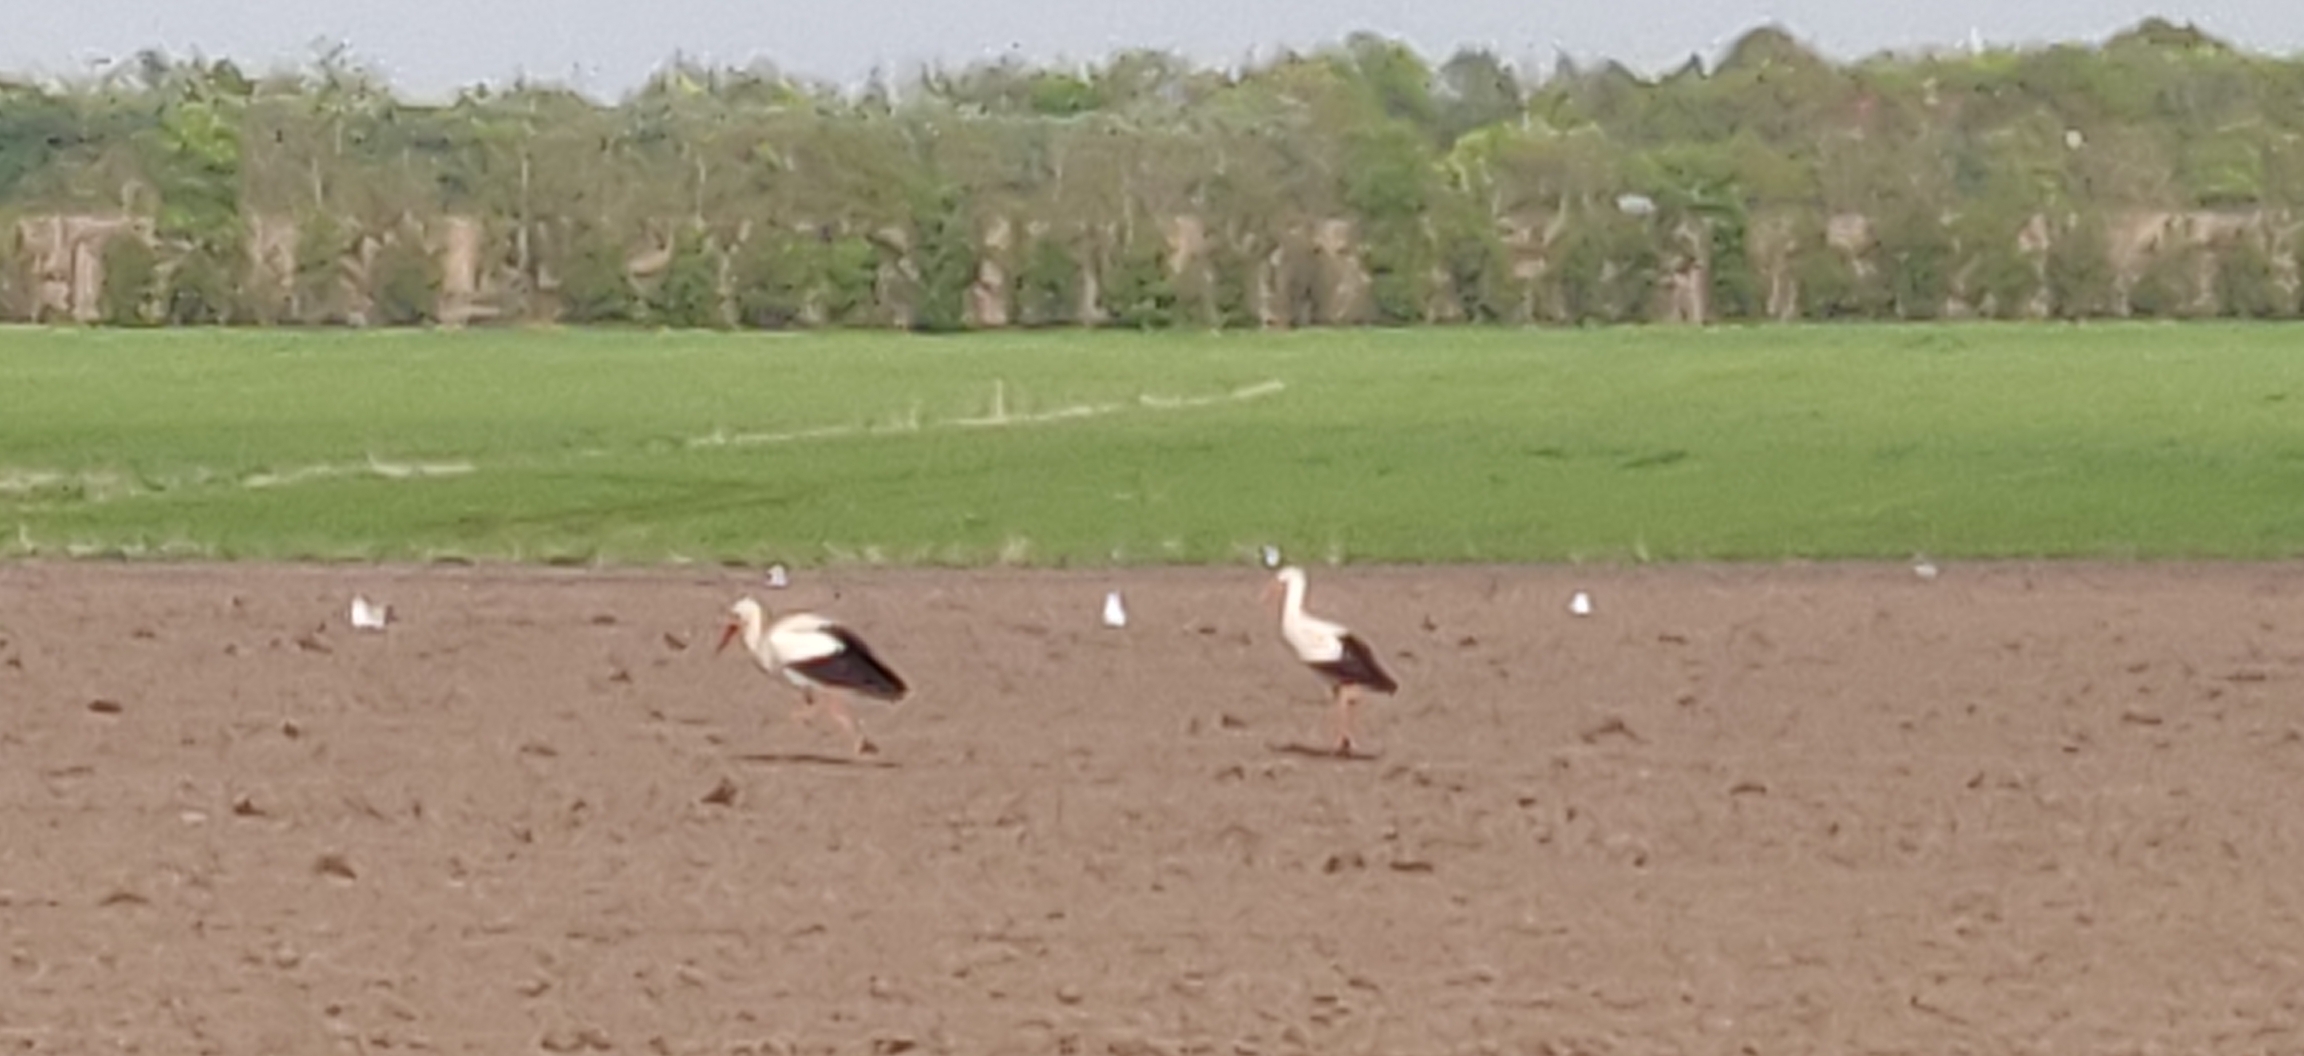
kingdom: Animalia
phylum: Chordata
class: Aves
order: Ciconiiformes
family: Ciconiidae
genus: Ciconia
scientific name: Ciconia ciconia
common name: Hvid stork
